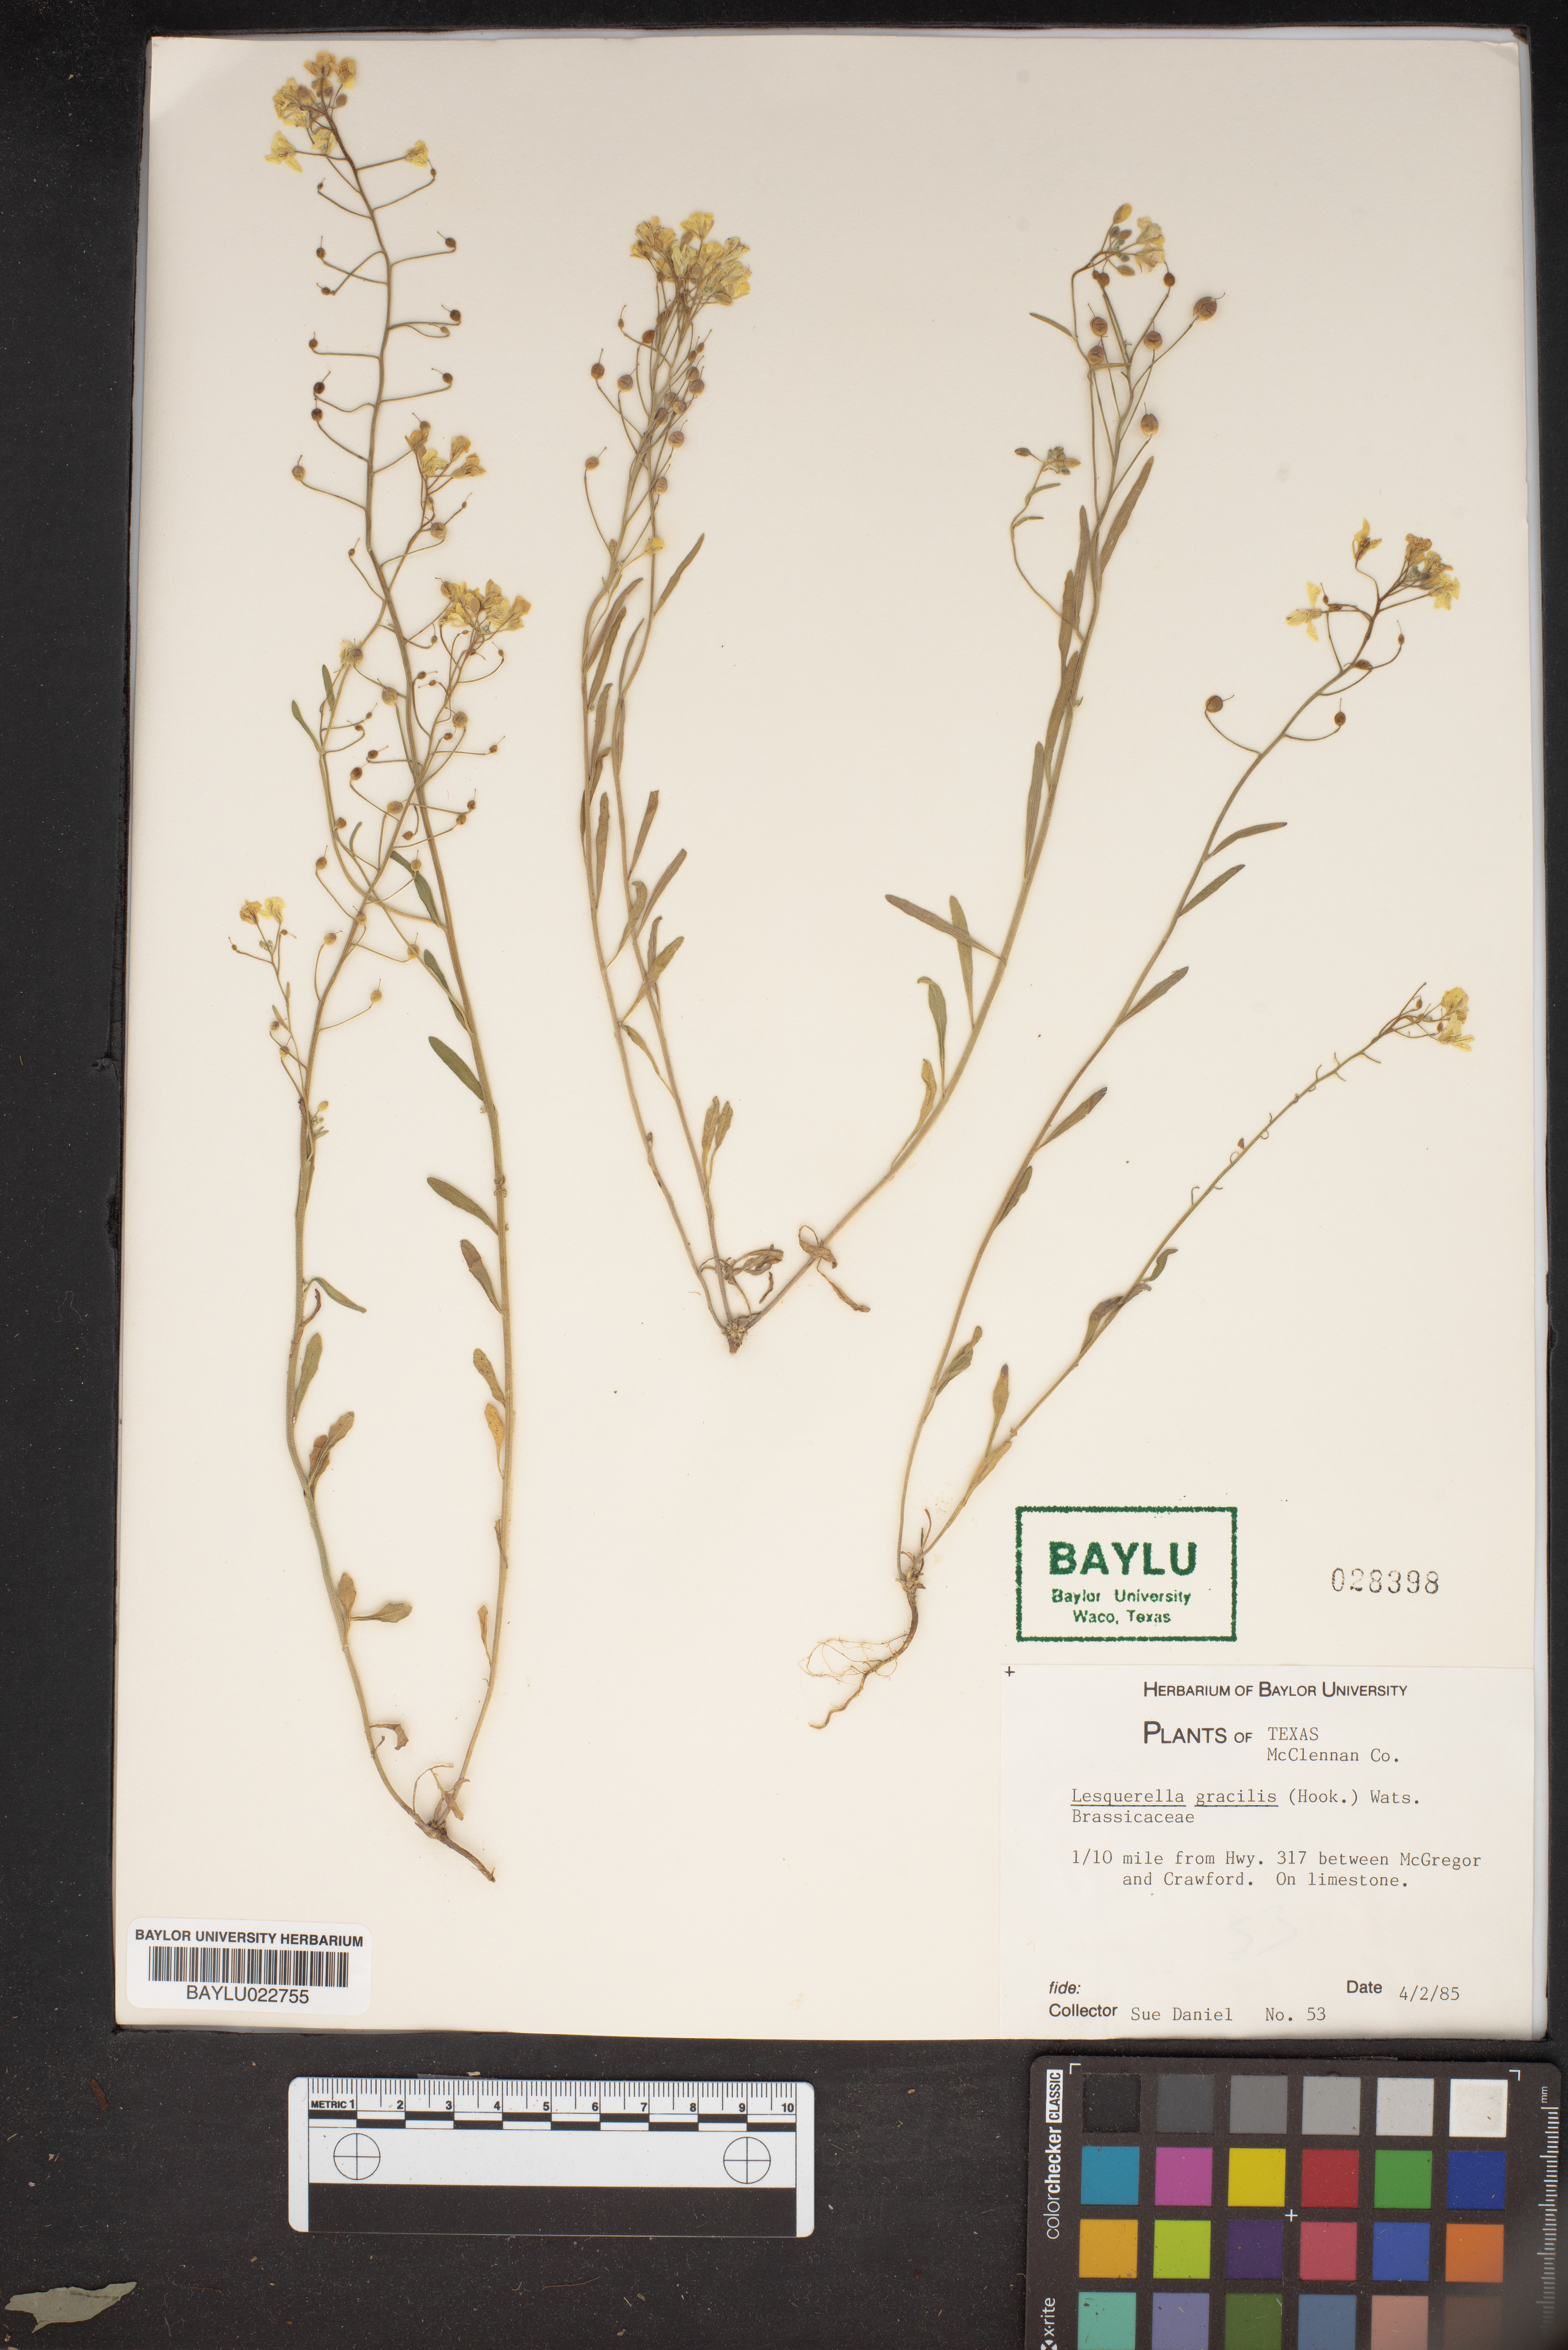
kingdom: Plantae
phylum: Tracheophyta
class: Magnoliopsida
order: Brassicales
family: Brassicaceae
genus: Physaria
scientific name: Physaria gracilis
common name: Spreading bladderpod
